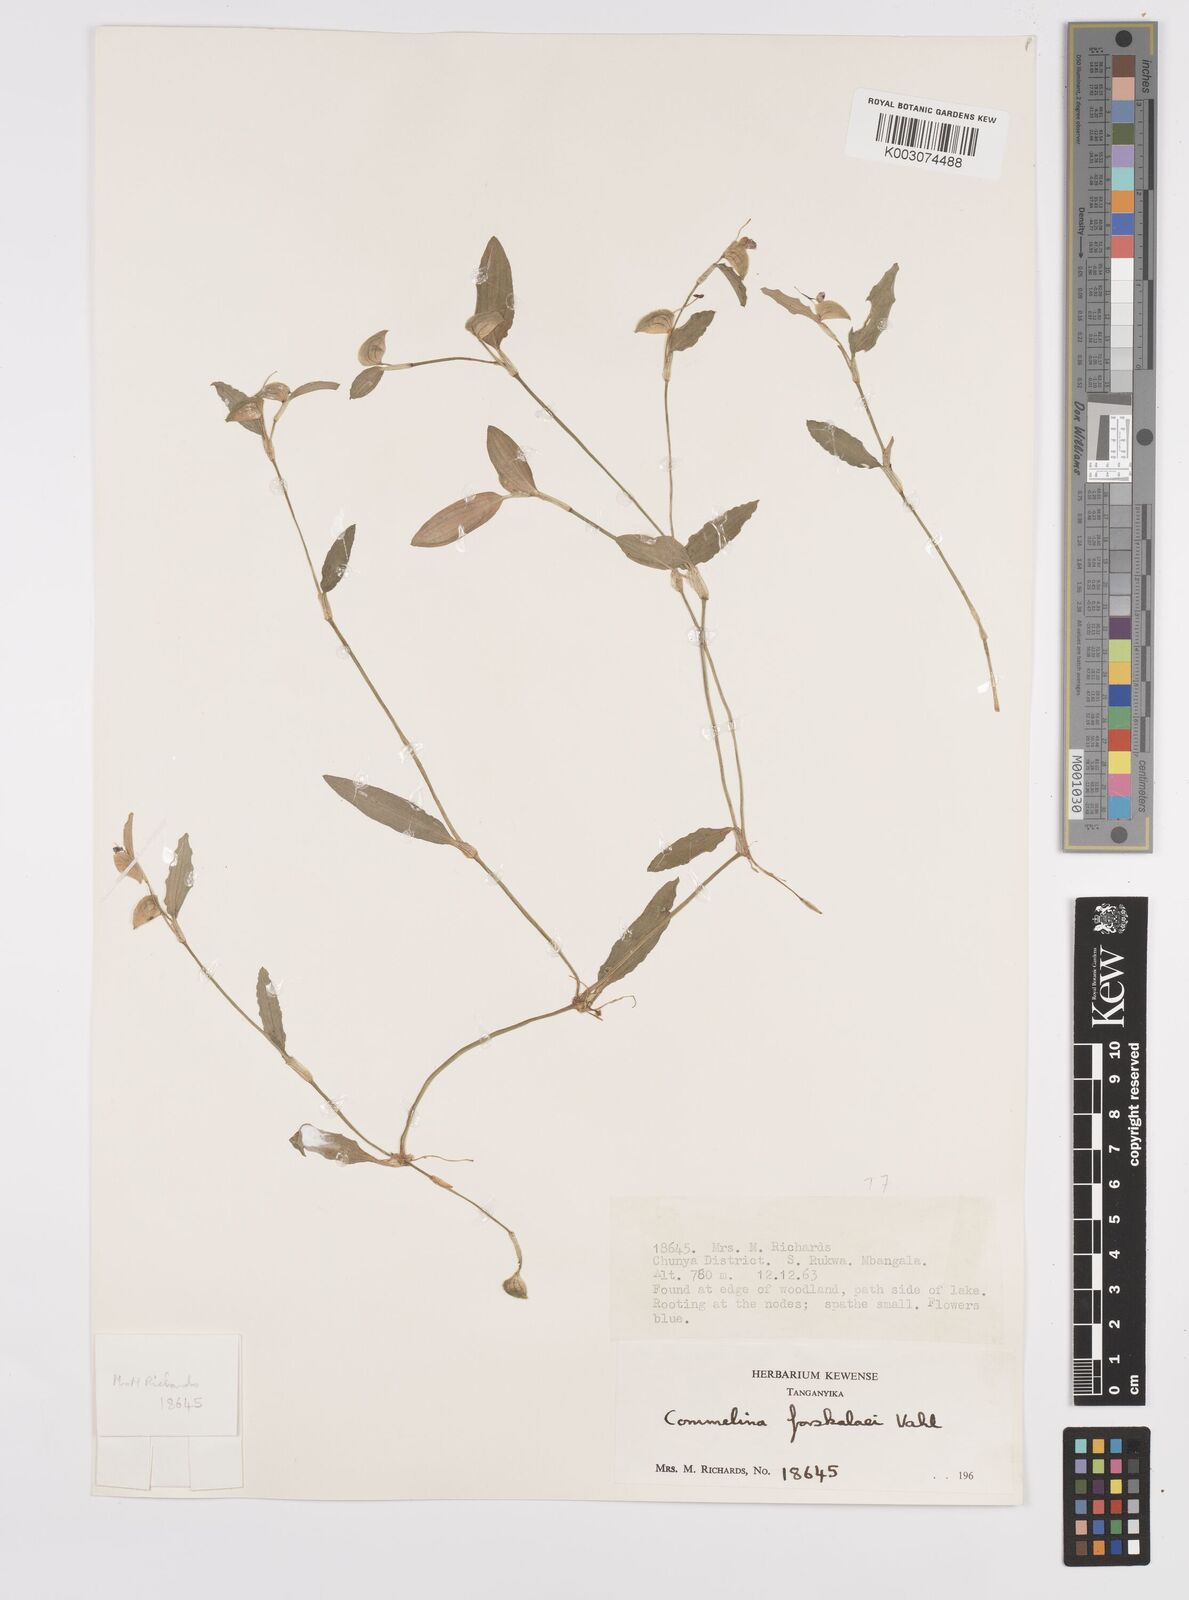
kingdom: Plantae
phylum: Tracheophyta
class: Liliopsida
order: Commelinales
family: Commelinaceae
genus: Commelina
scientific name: Commelina
